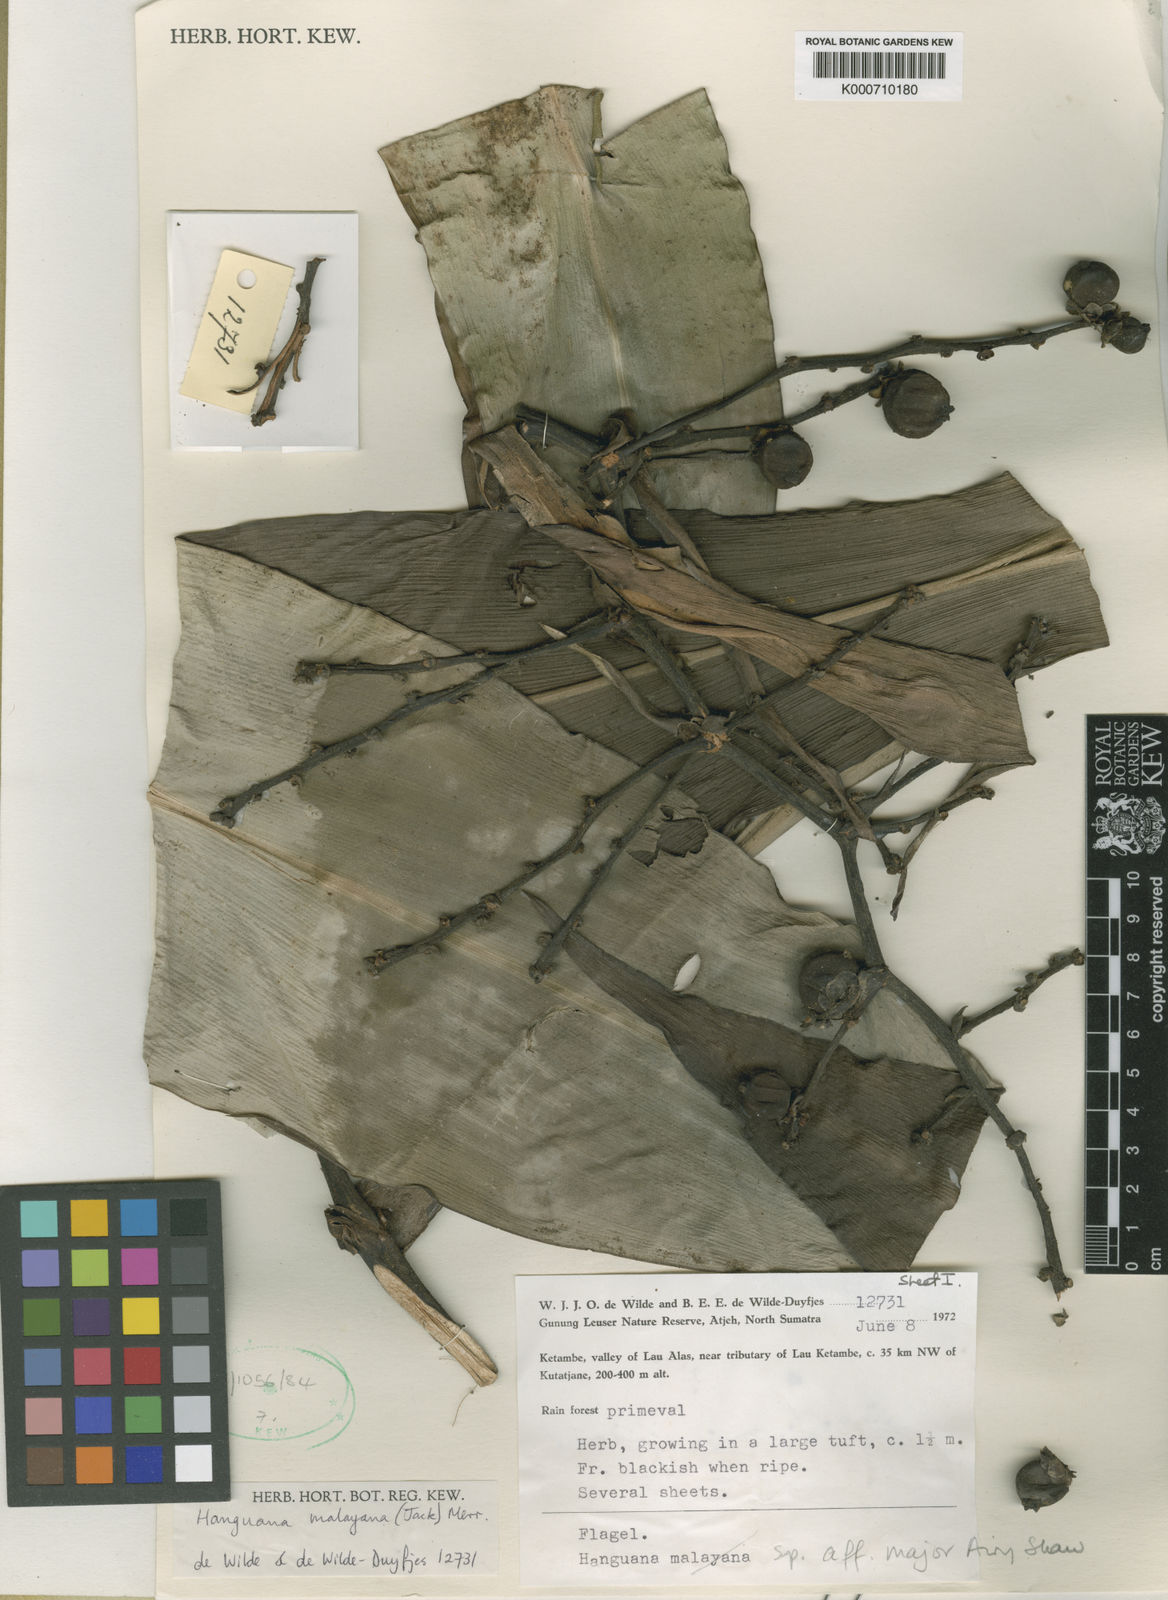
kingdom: Plantae
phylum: Tracheophyta
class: Liliopsida
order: Commelinales
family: Hanguanaceae
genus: Hanguana
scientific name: Hanguana malayana
